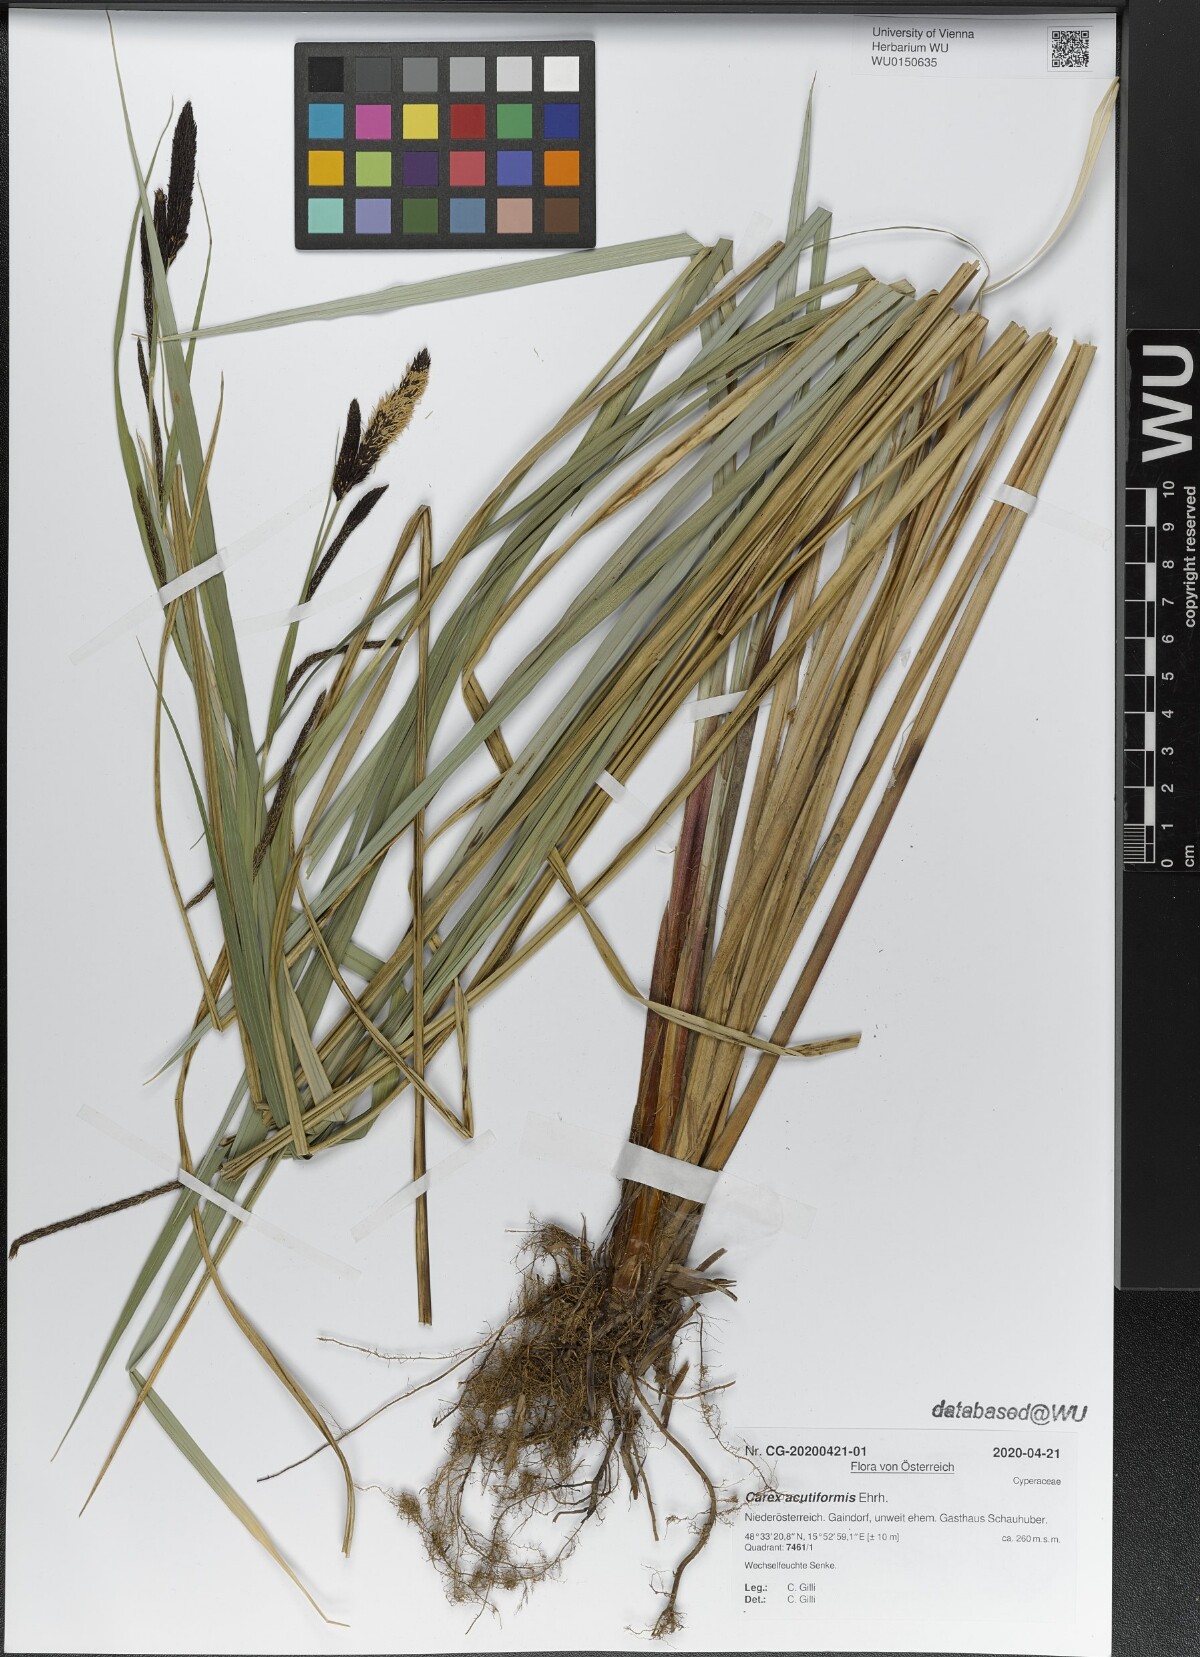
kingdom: Plantae
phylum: Tracheophyta
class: Liliopsida
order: Poales
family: Cyperaceae
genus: Carex
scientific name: Carex acutiformis
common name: Lesser pond-sedge
